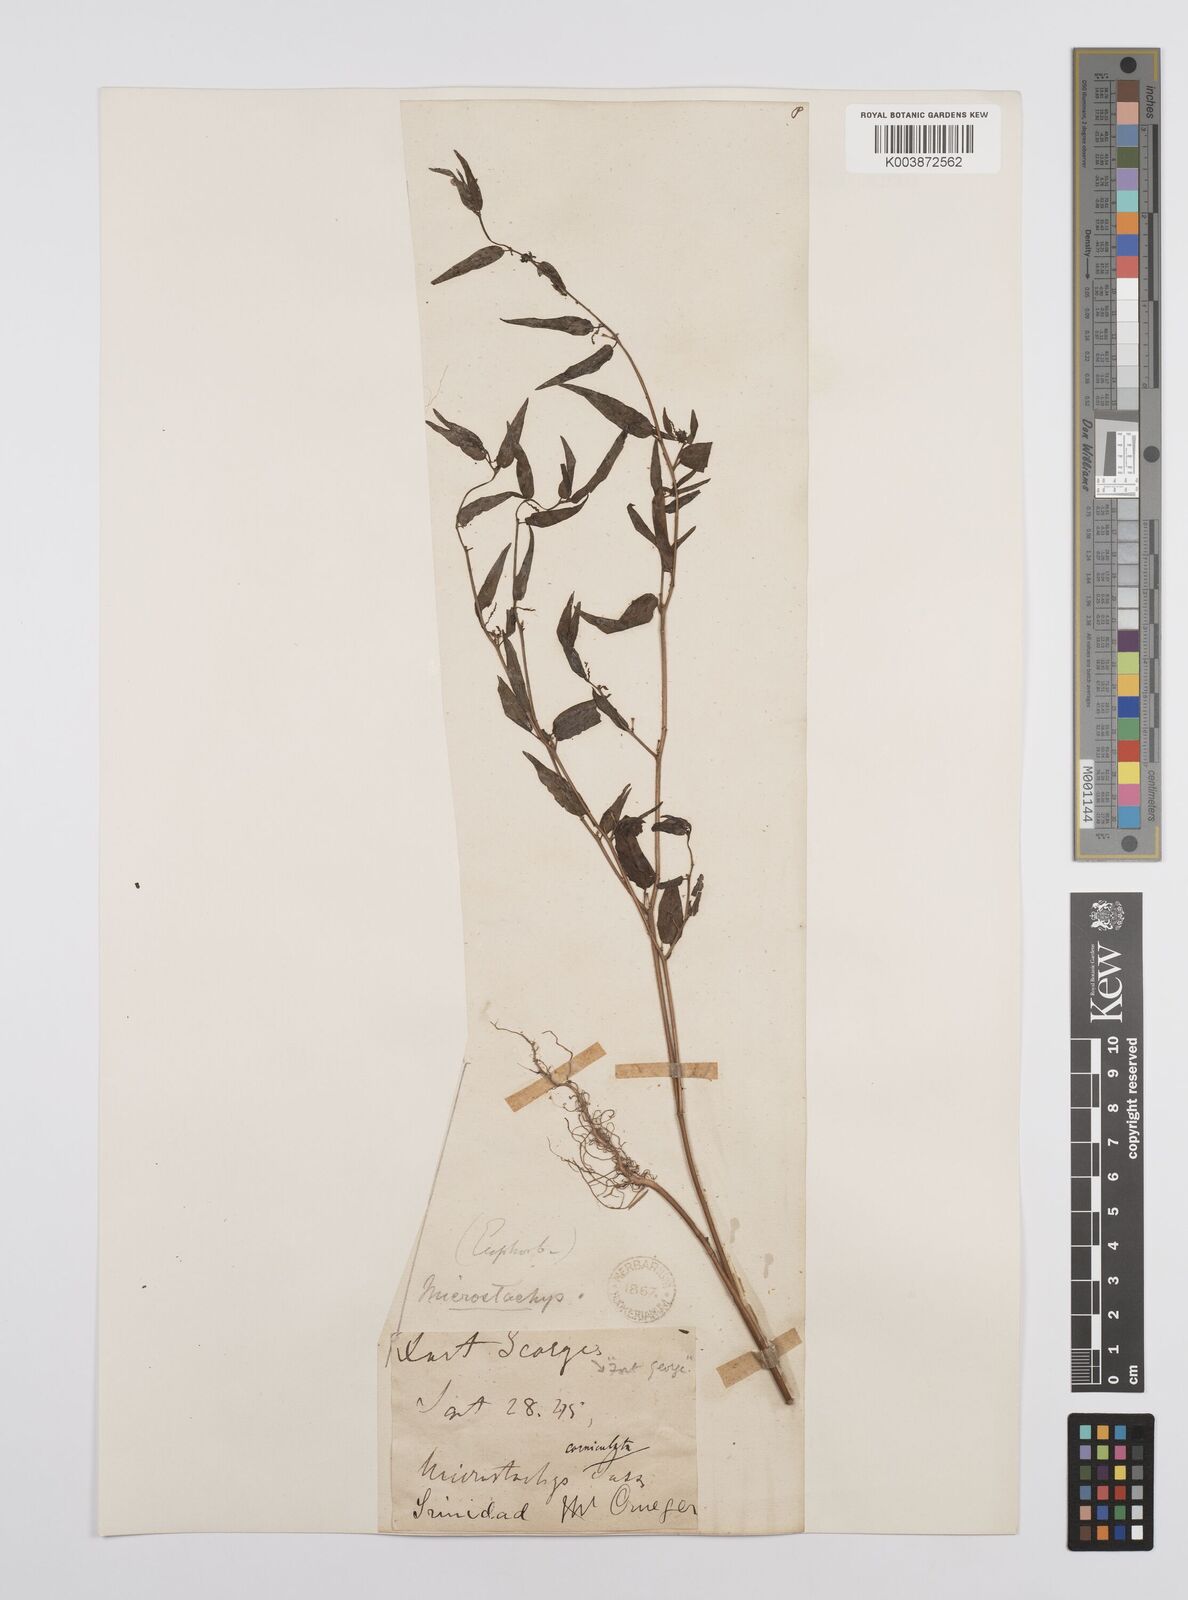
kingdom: Plantae
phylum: Tracheophyta
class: Magnoliopsida
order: Malpighiales
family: Euphorbiaceae
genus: Microstachys
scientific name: Microstachys corniculata
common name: Hato tejas
